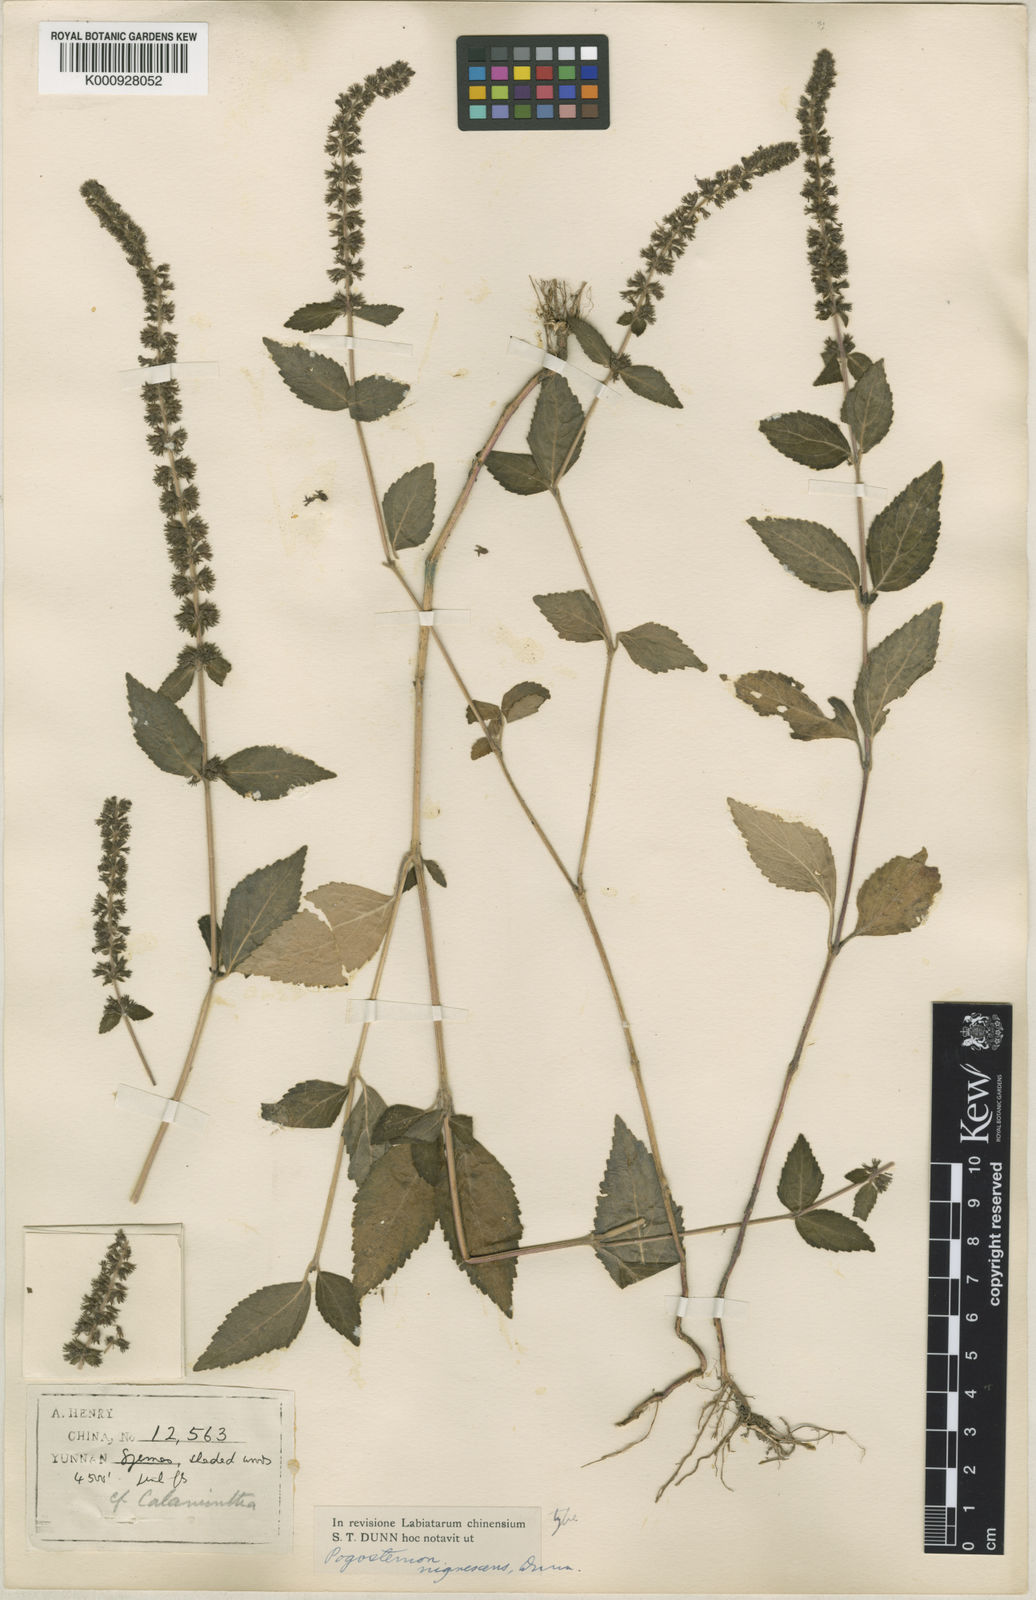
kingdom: Plantae
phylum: Tracheophyta
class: Magnoliopsida
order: Lamiales
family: Lamiaceae
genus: Pogostemon
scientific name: Pogostemon brachystachyus
